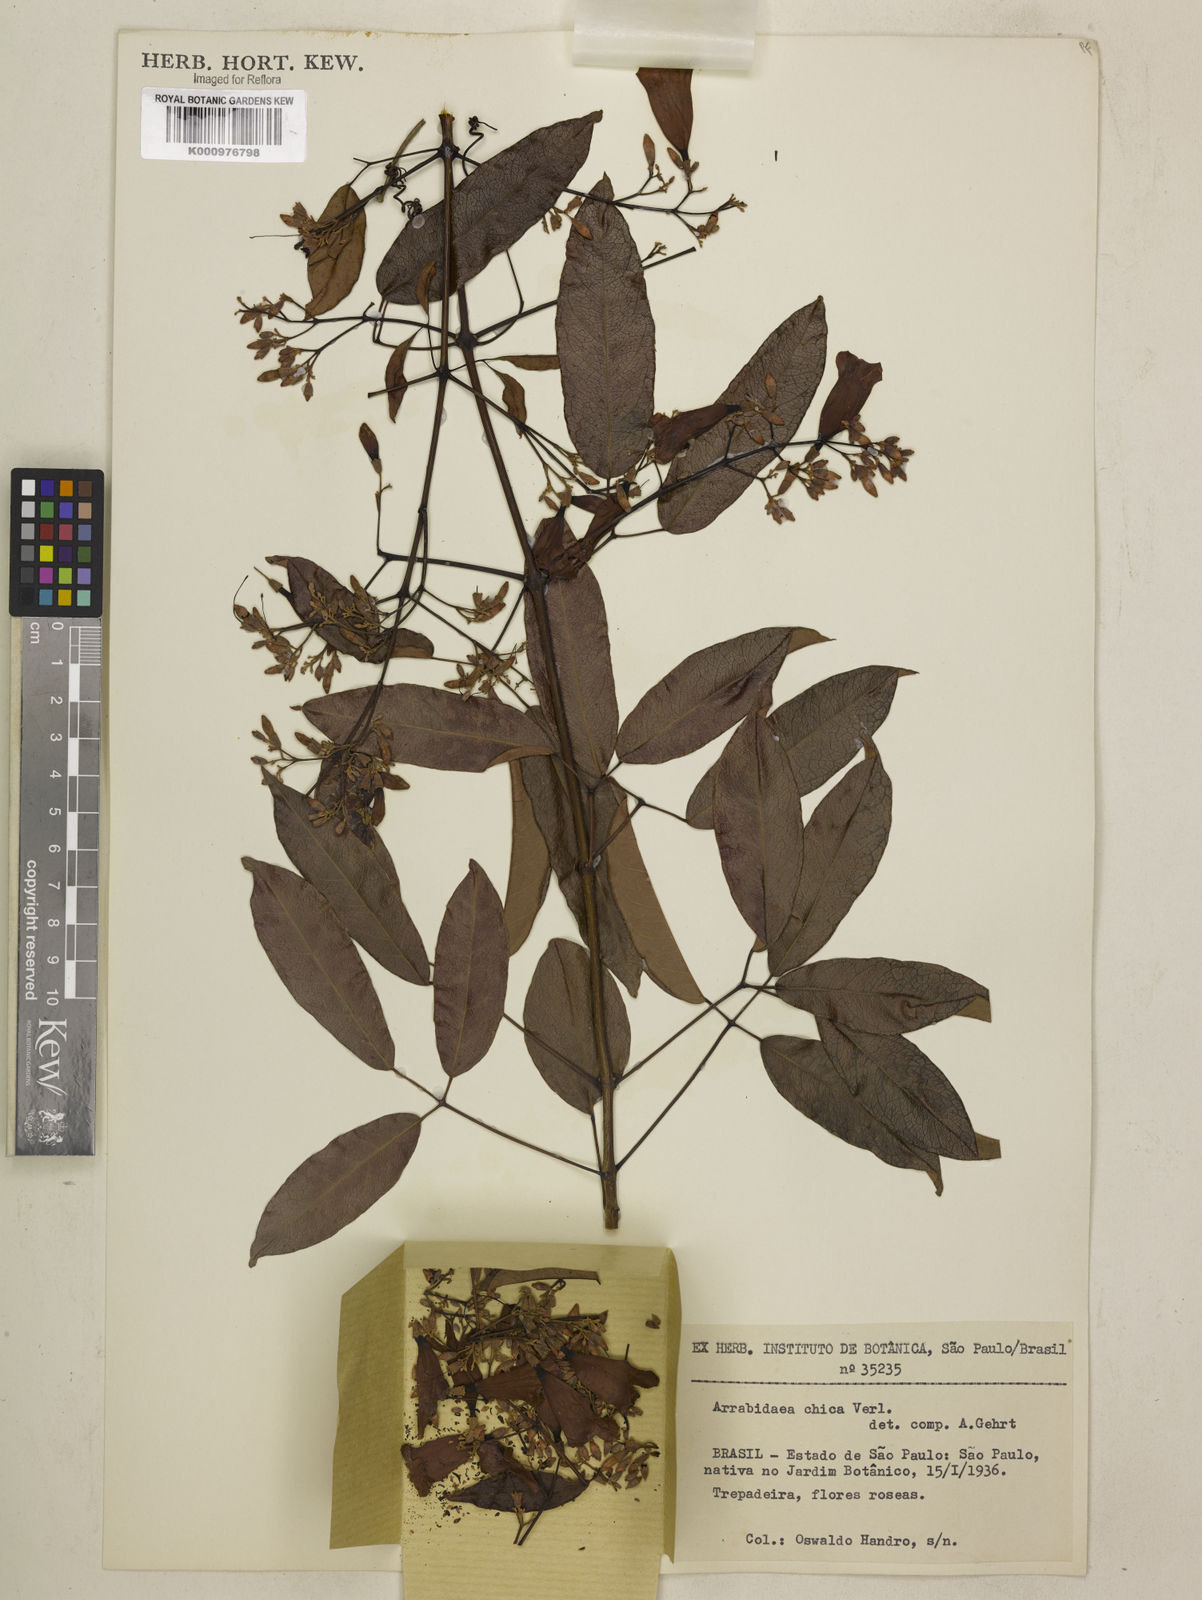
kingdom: Plantae
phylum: Tracheophyta
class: Magnoliopsida
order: Lamiales
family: Bignoniaceae
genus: Fridericia
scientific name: Fridericia chica
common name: Cricketvine
